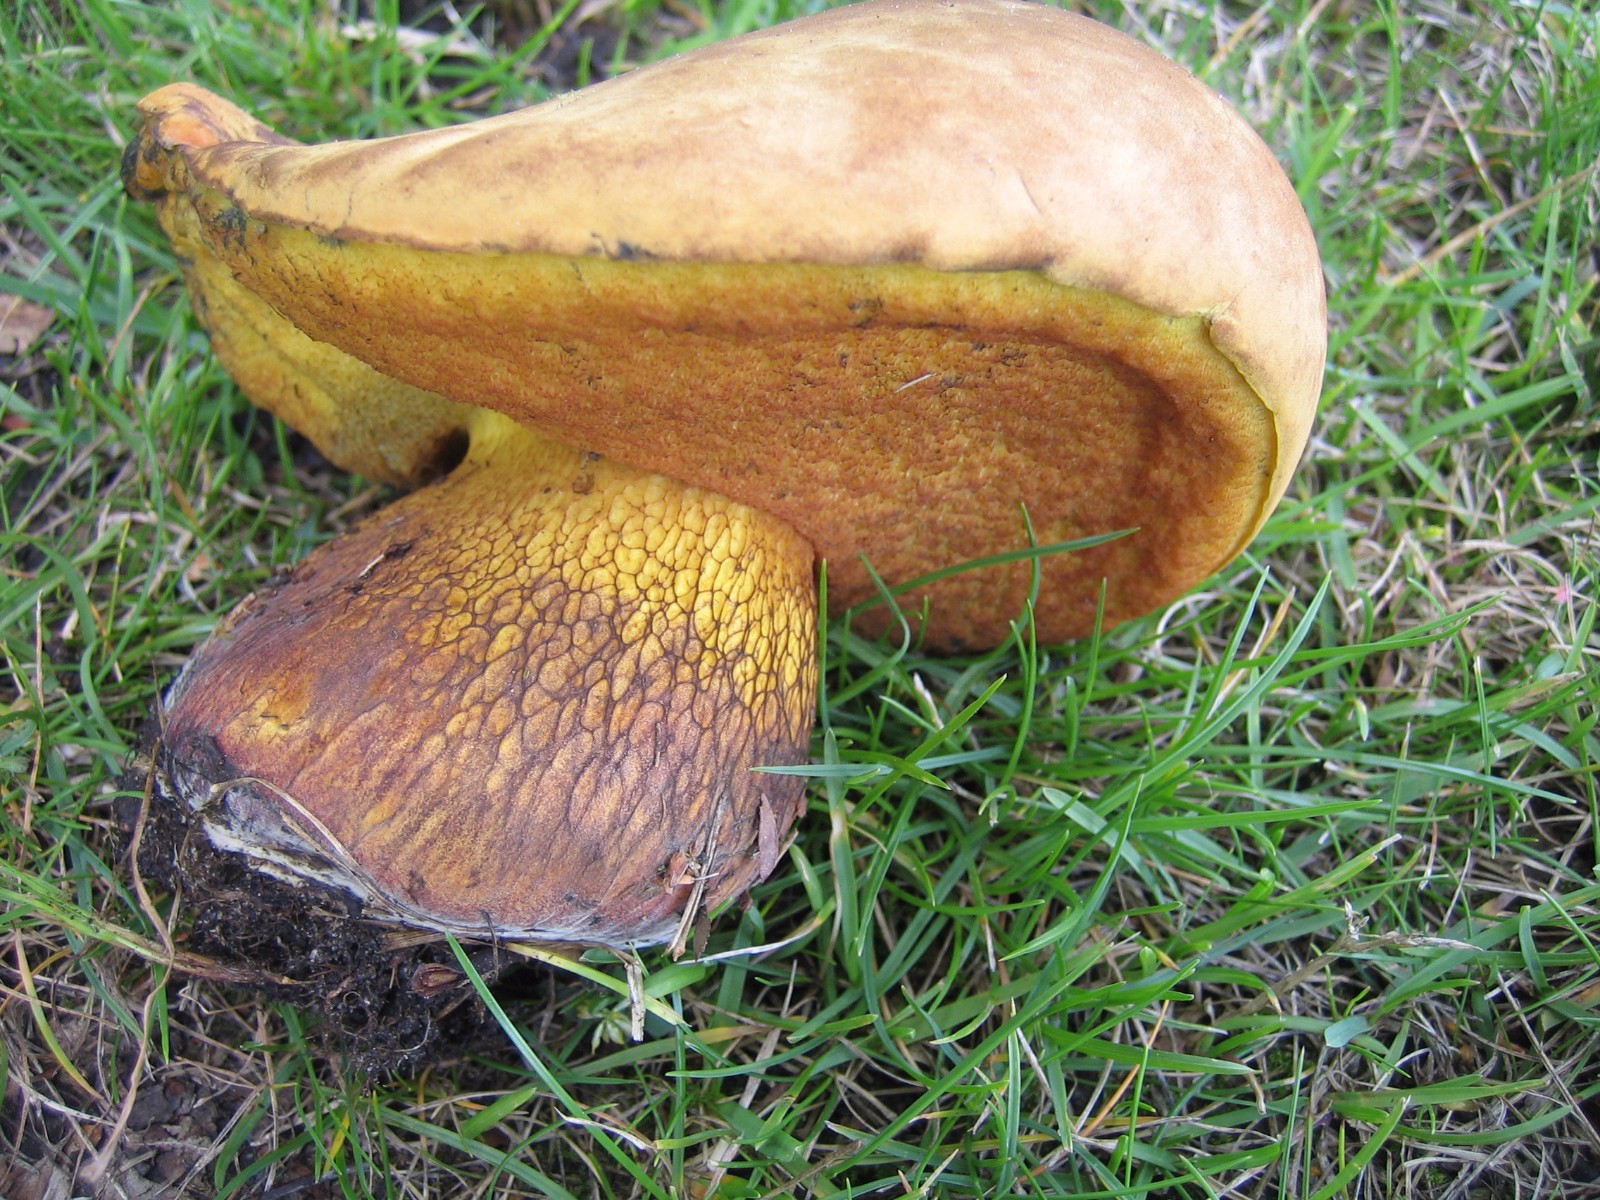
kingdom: Fungi
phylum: Basidiomycota
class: Agaricomycetes
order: Boletales
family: Boletaceae
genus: Suillellus
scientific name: Suillellus luridus
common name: netstokket indigorørhat
